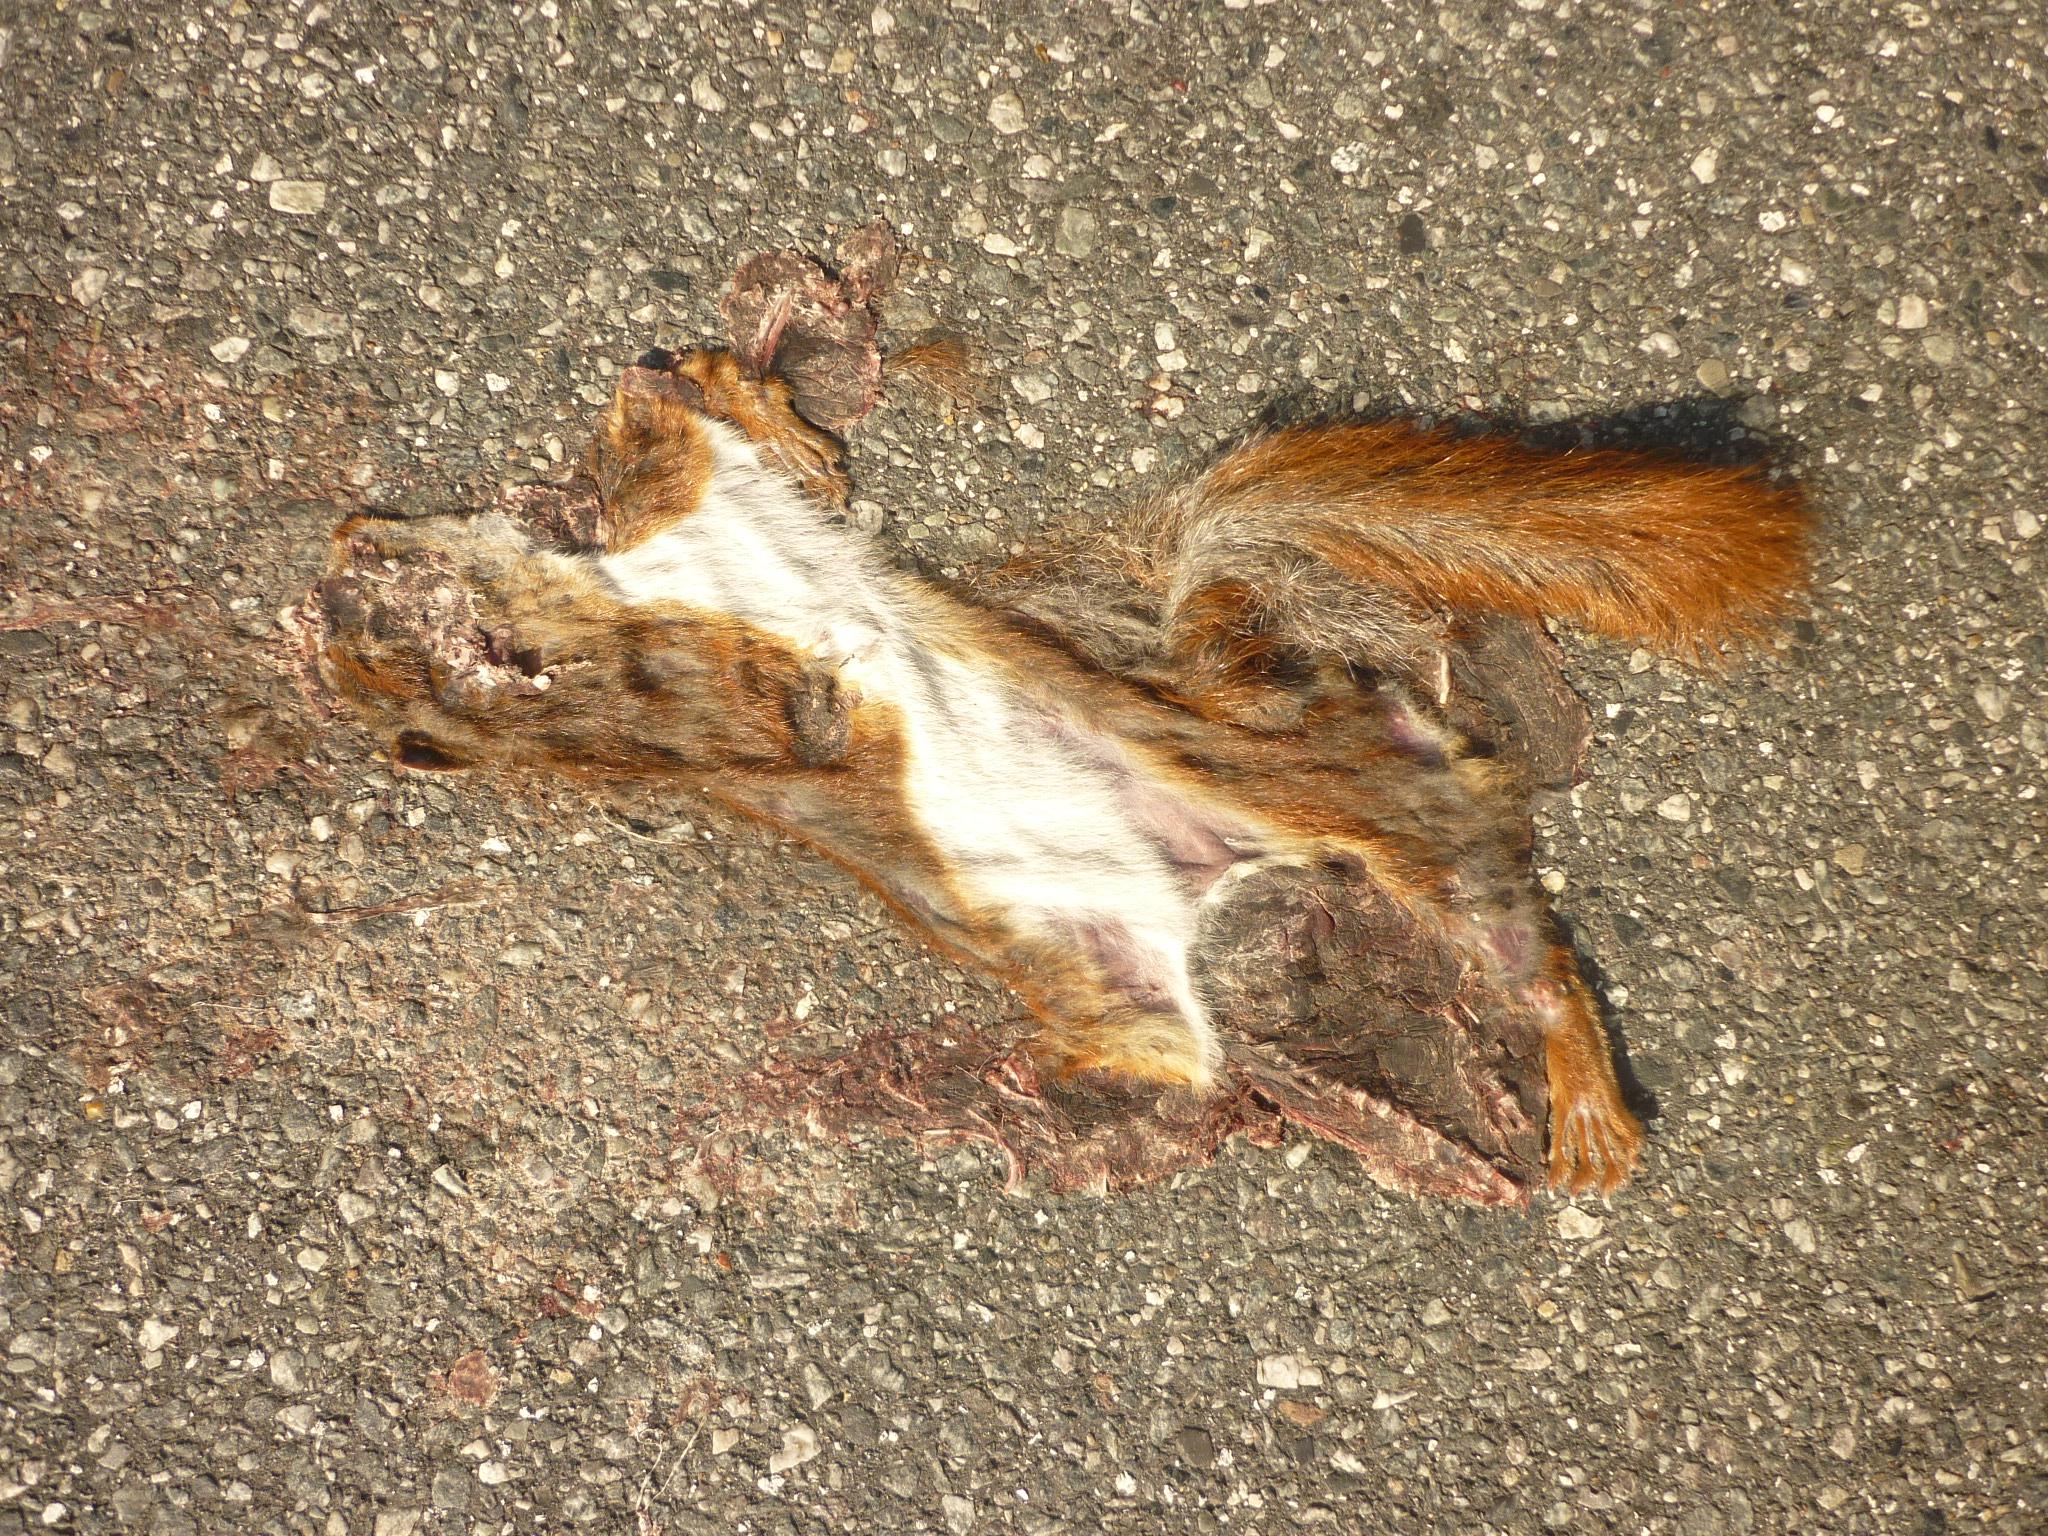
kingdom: Animalia
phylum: Chordata
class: Mammalia
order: Rodentia
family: Sciuridae
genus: Sciurus
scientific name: Sciurus vulgaris
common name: Eurasian red squirrel
